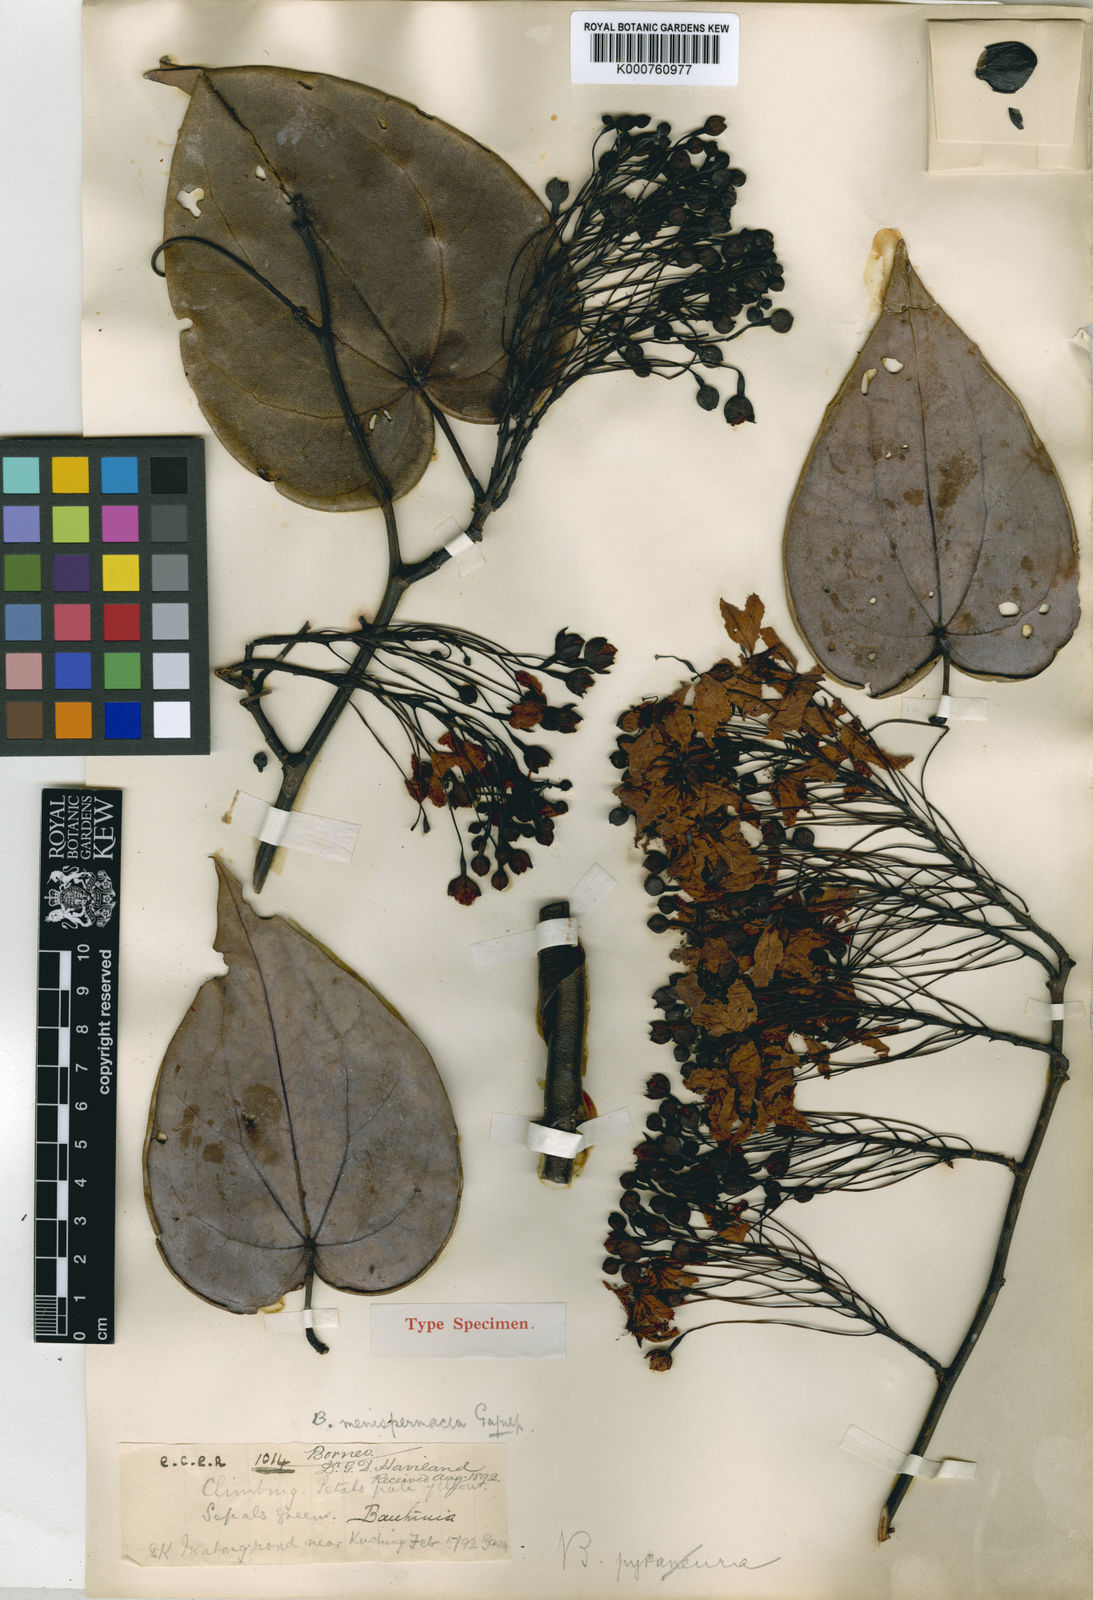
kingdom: Plantae
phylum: Tracheophyta
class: Magnoliopsida
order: Fabales
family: Fabaceae
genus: Phanera
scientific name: Phanera menispermacea
